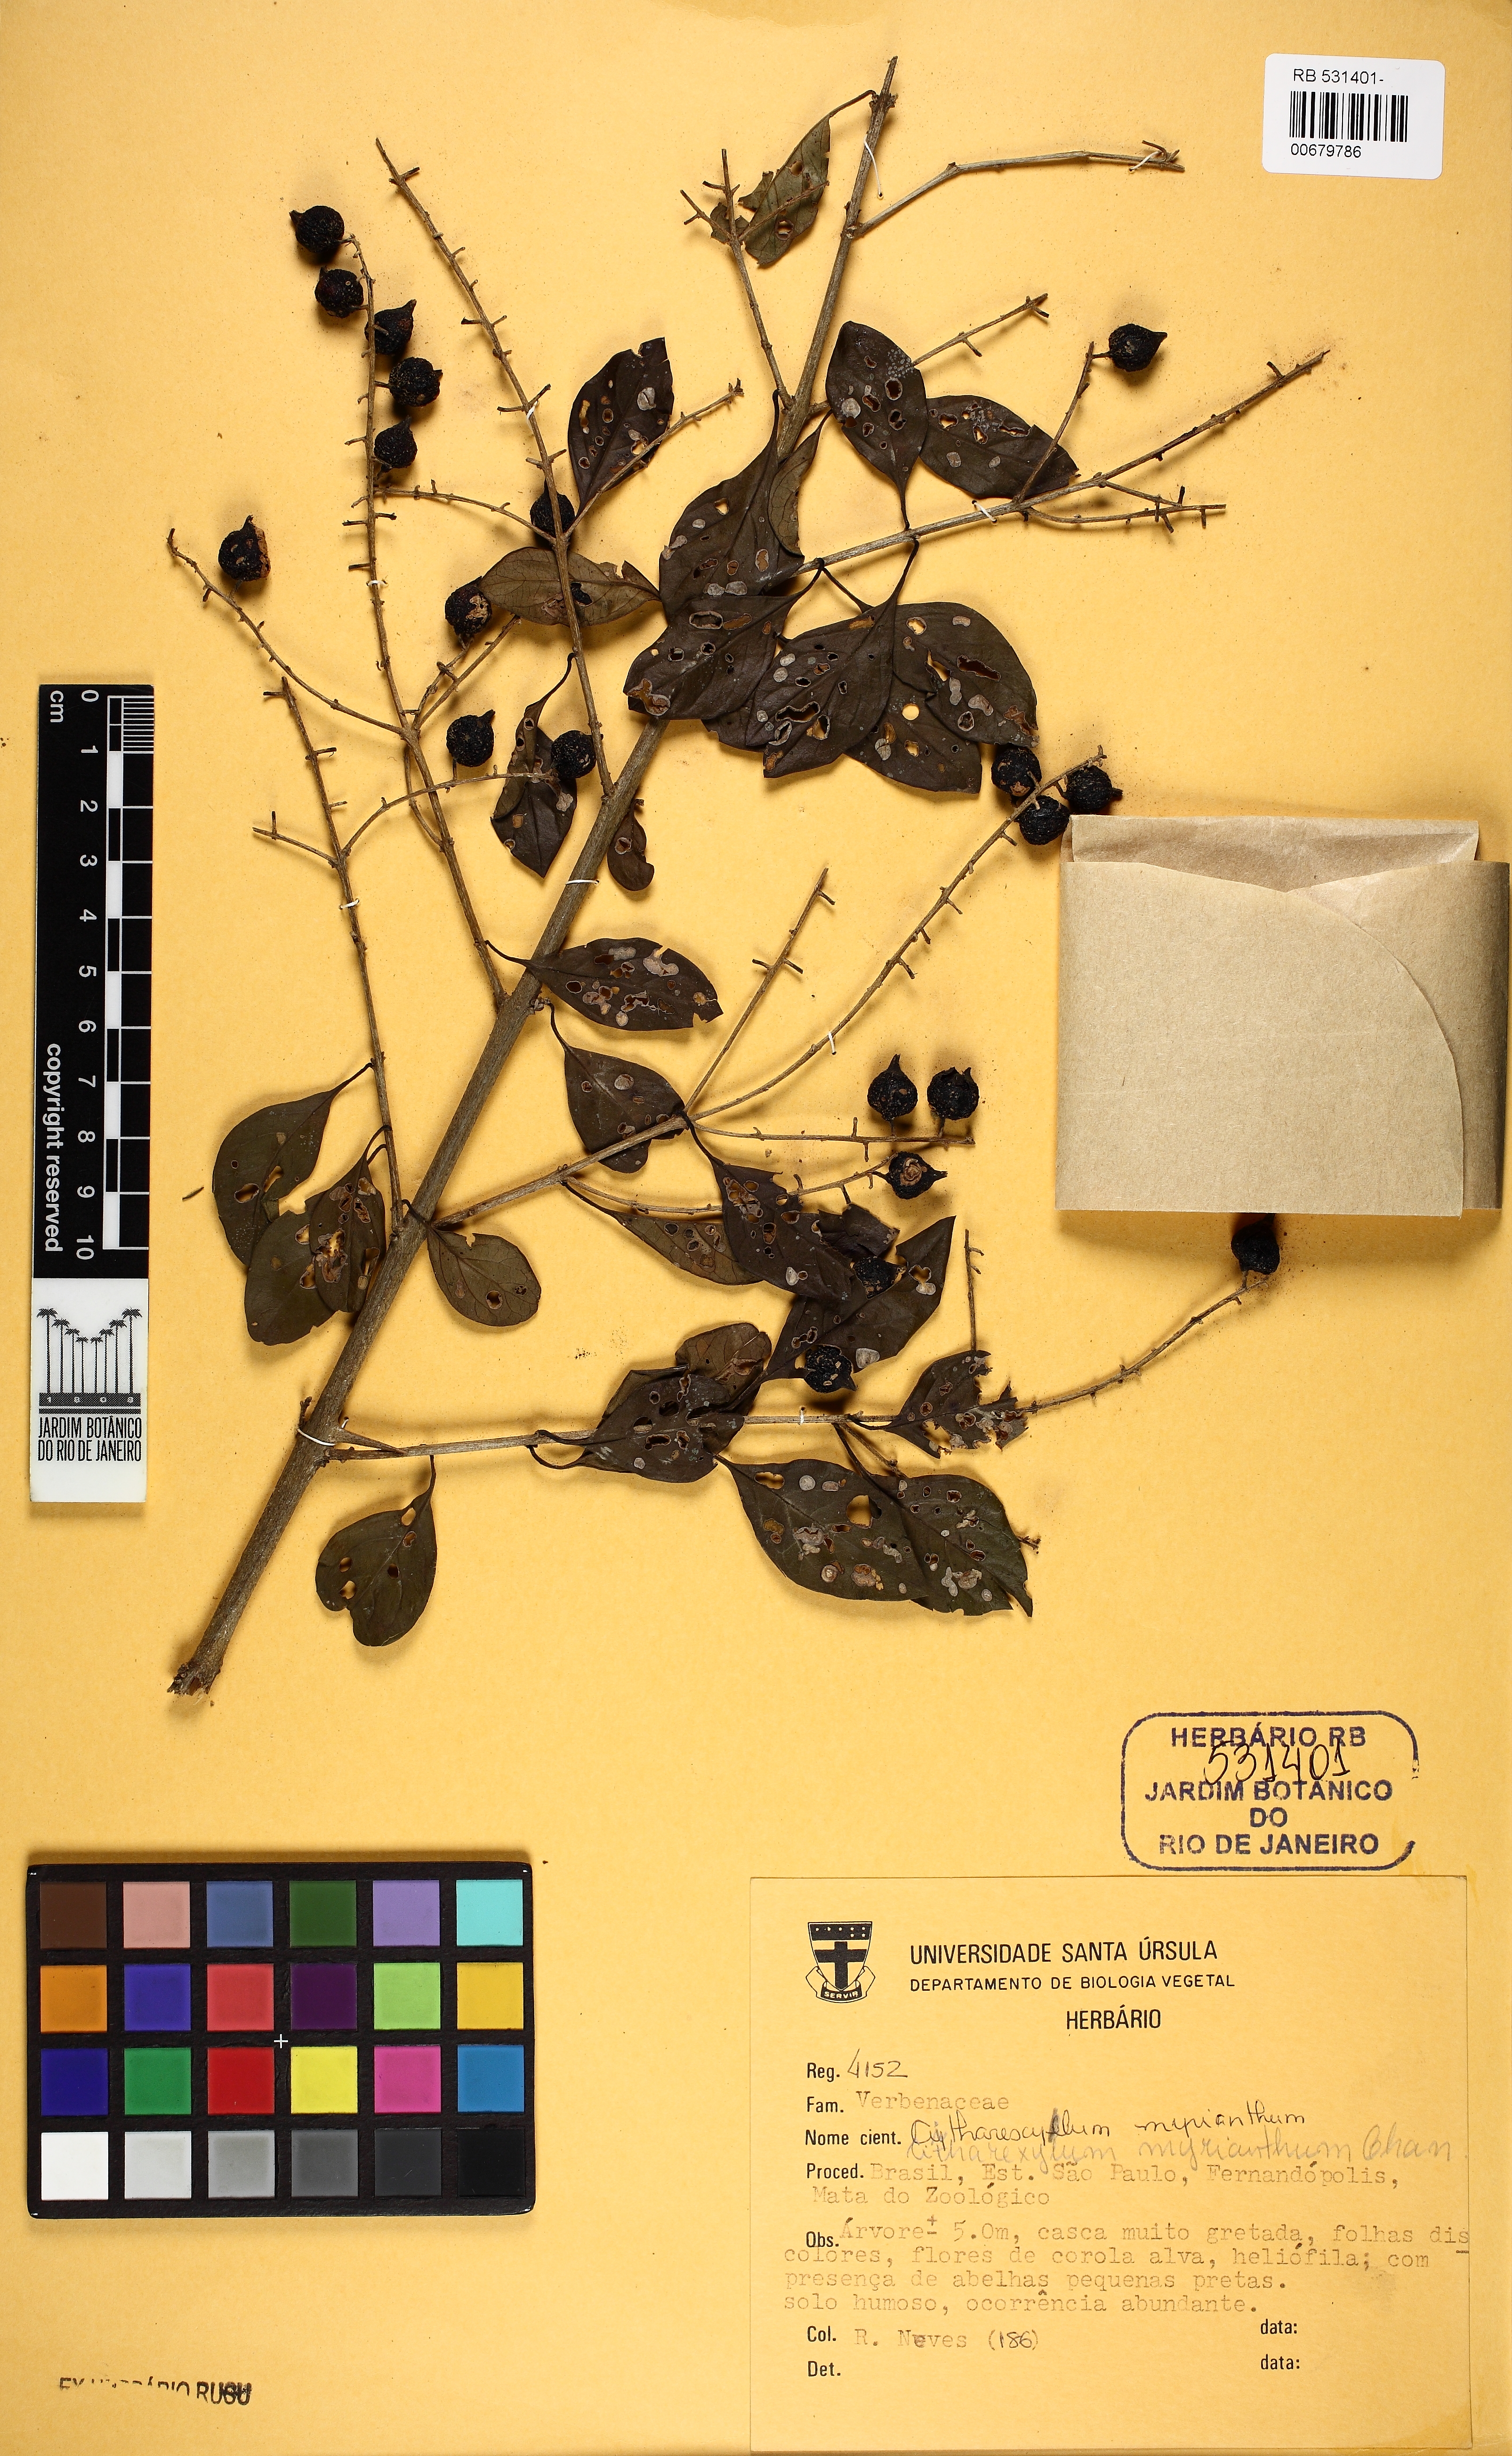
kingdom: Plantae
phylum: Tracheophyta
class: Magnoliopsida
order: Lamiales
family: Verbenaceae
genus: Citharexylum
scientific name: Citharexylum myrianthum
